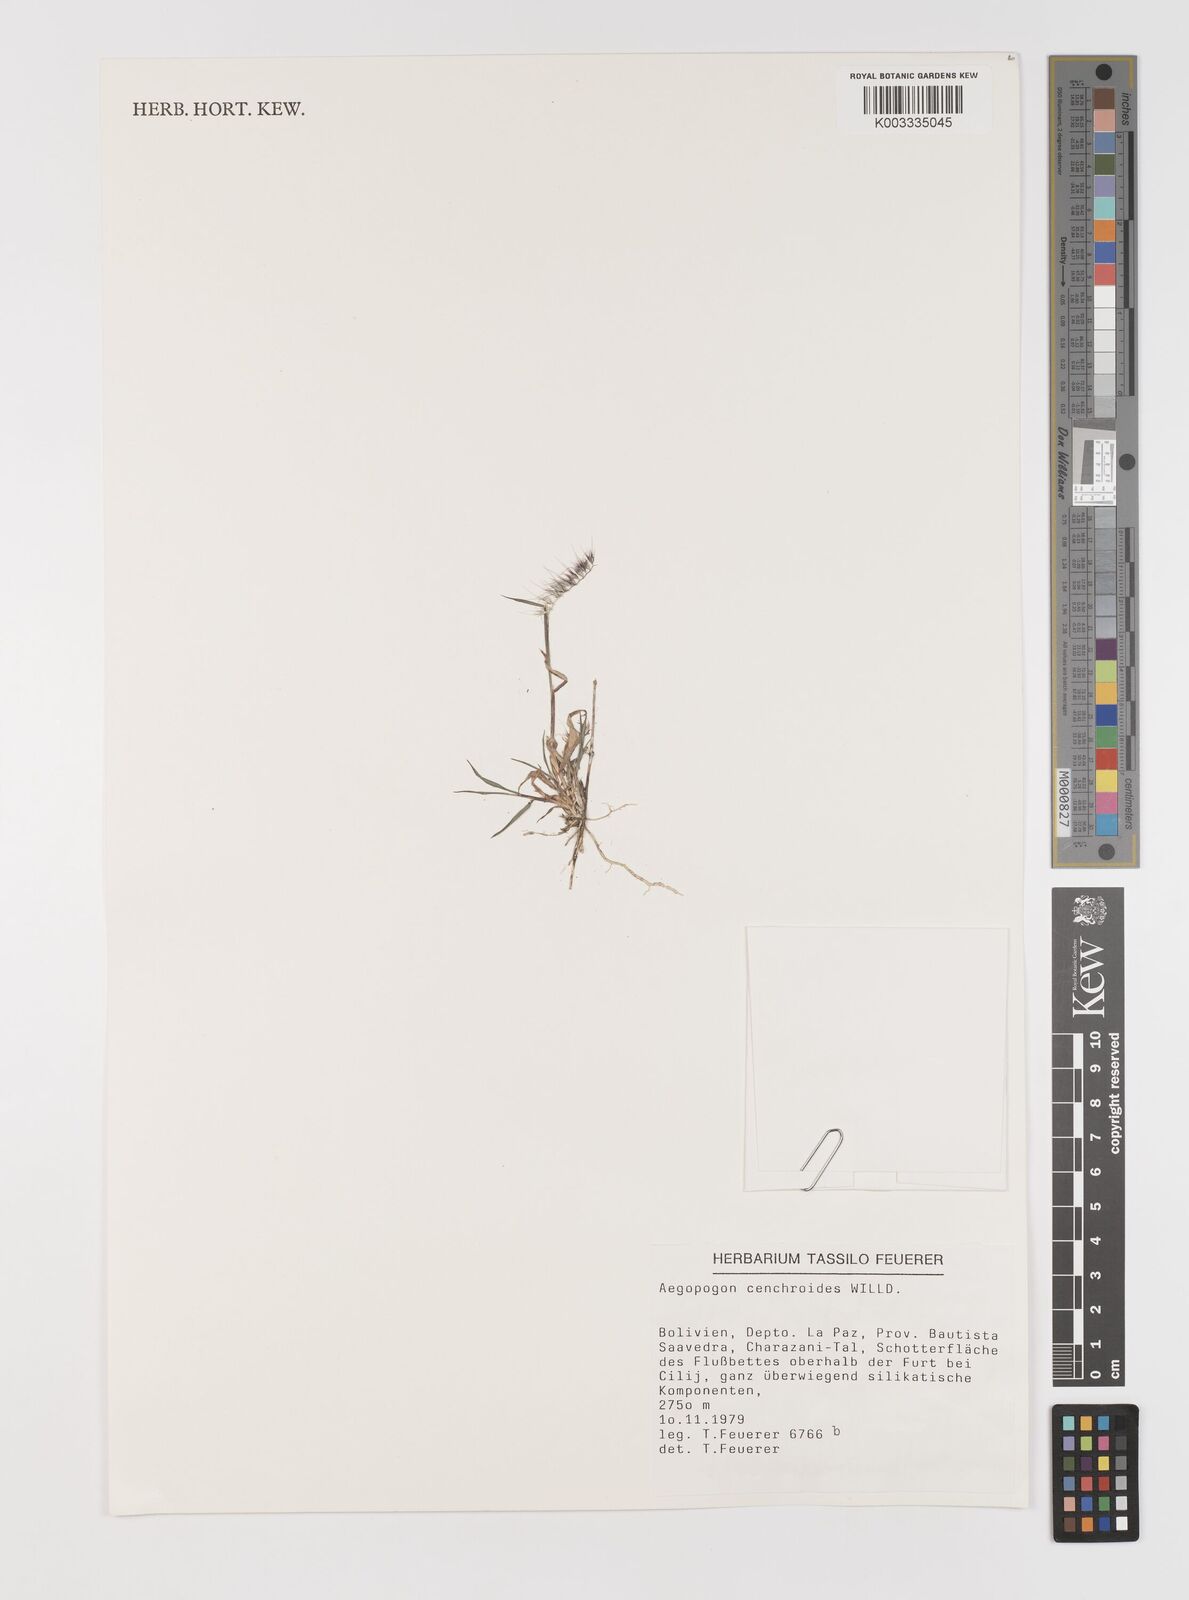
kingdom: Plantae
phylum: Tracheophyta
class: Liliopsida
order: Poales
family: Poaceae
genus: Muhlenbergia
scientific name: Muhlenbergia cenchroides
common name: Relaxgrass
